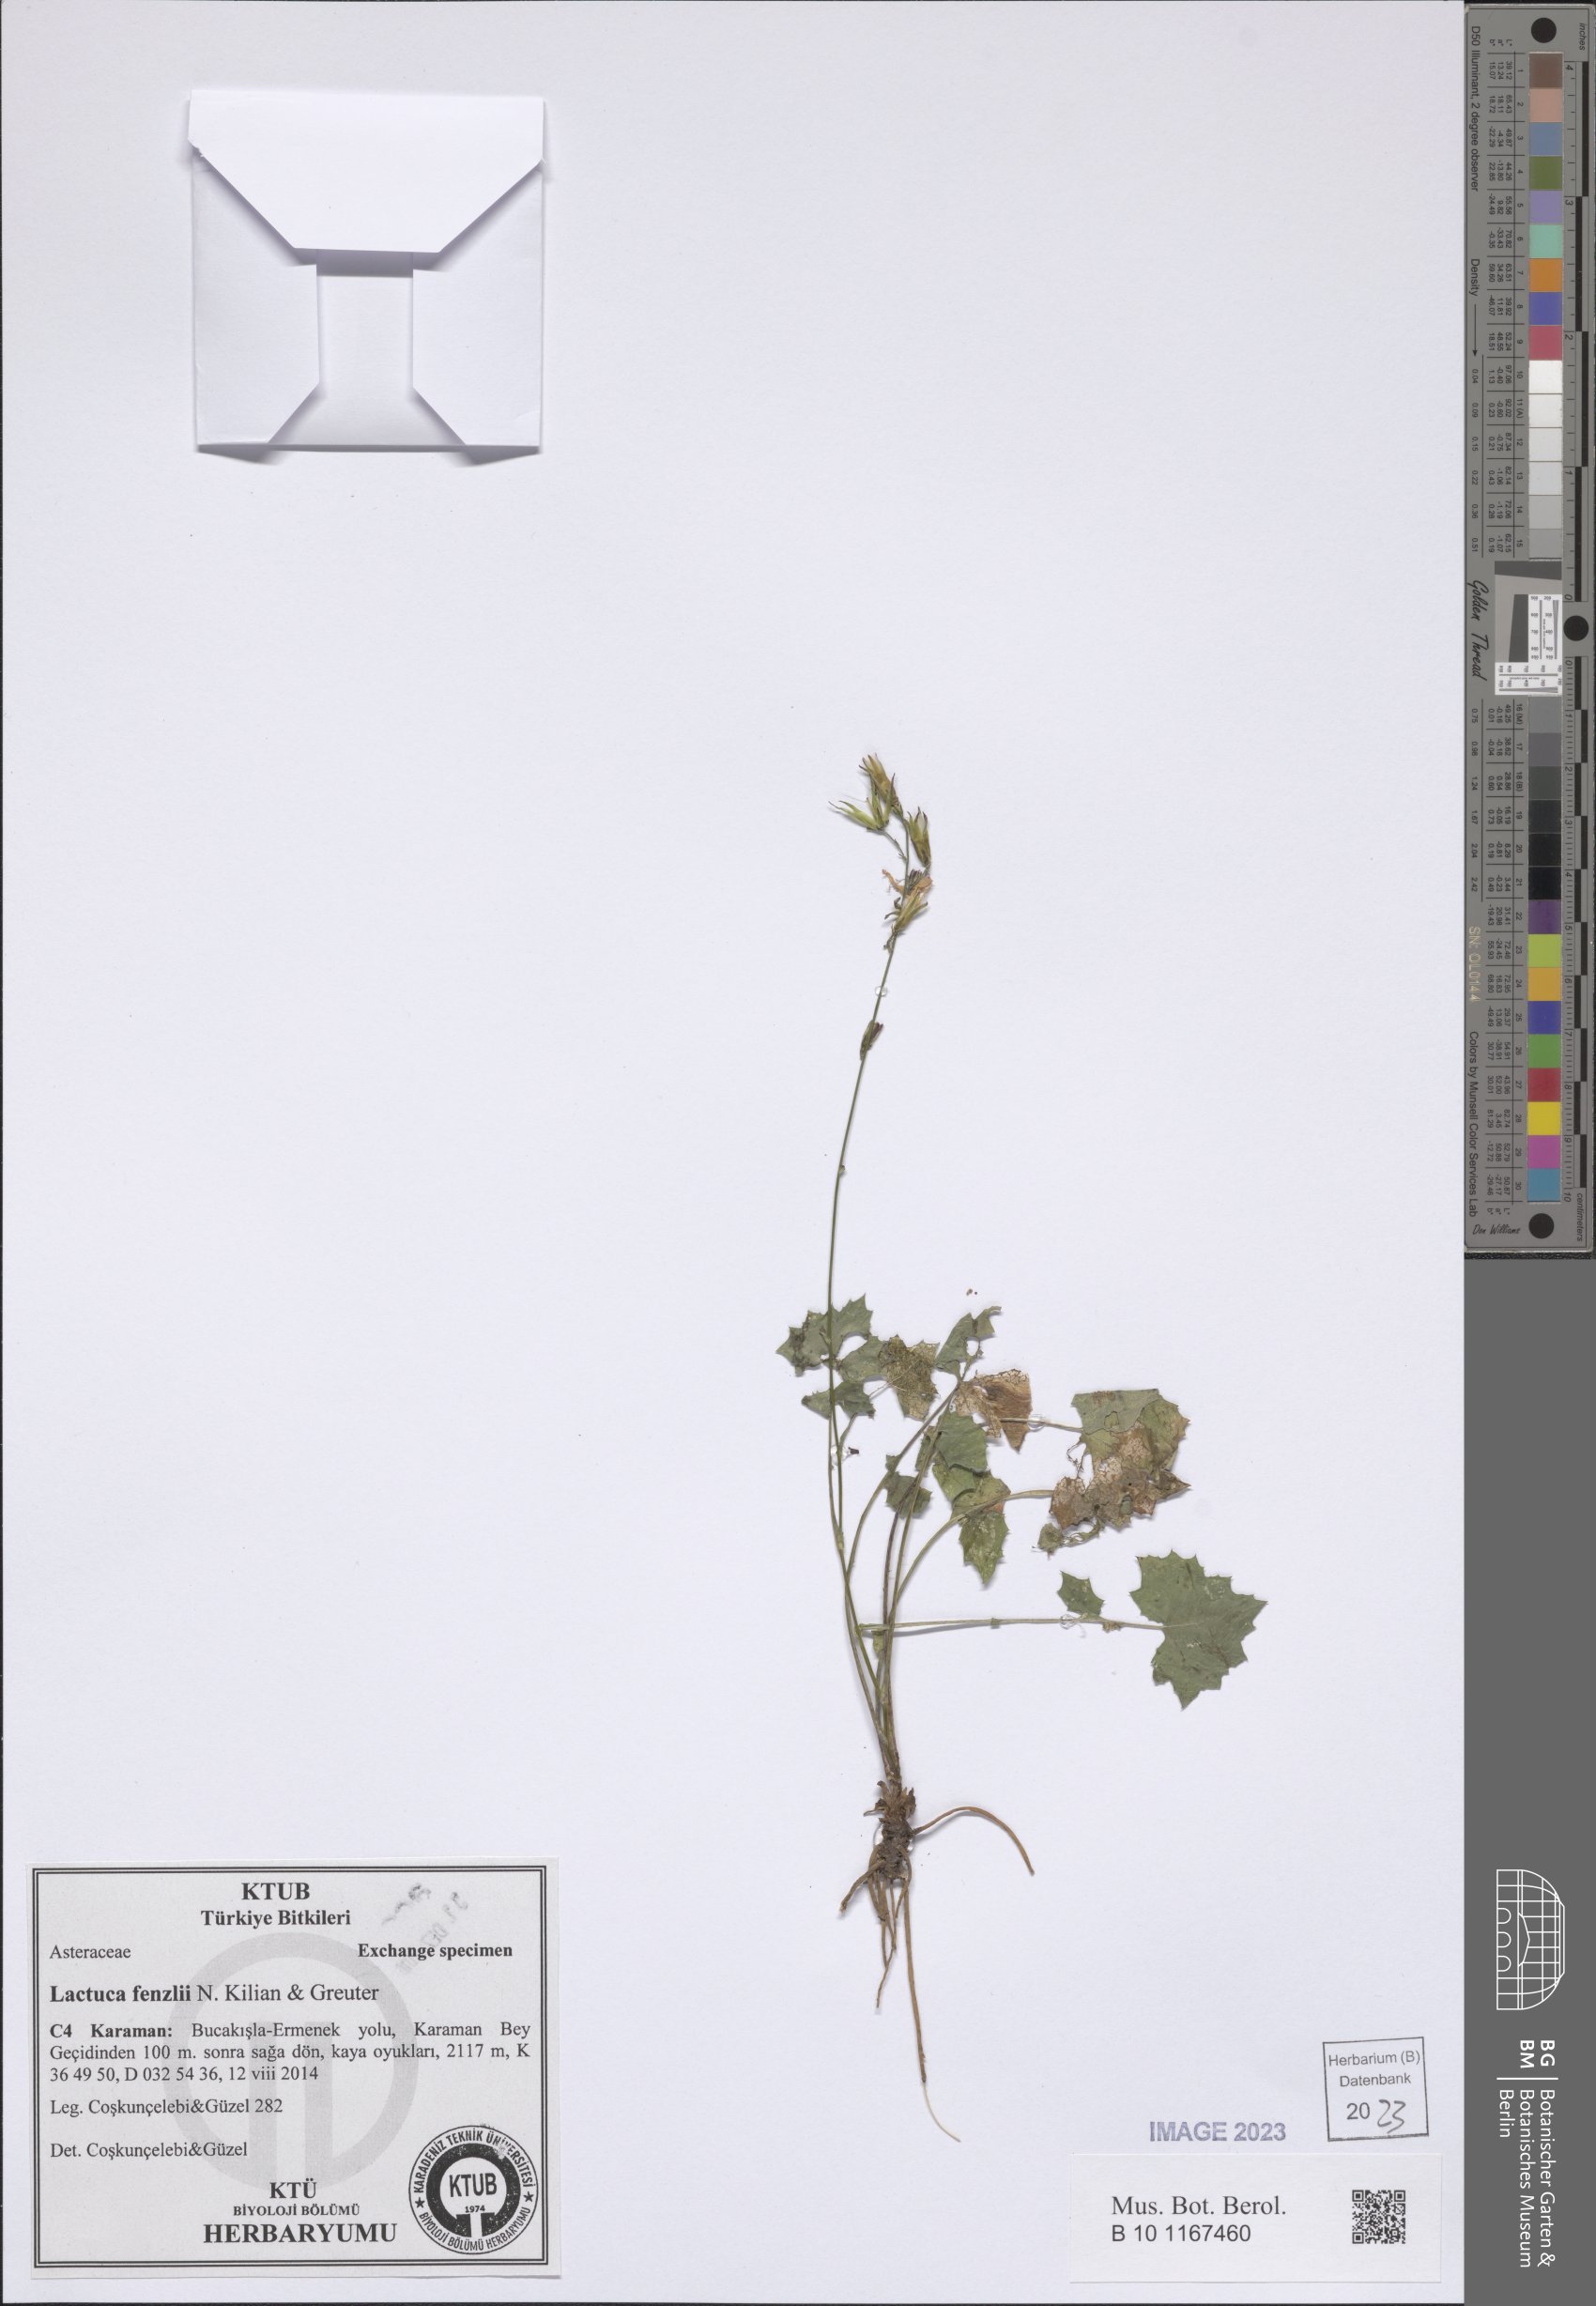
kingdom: Plantae
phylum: Tracheophyta
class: Magnoliopsida
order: Asterales
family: Asteraceae
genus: Lactuca
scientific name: Lactuca fenzlii
